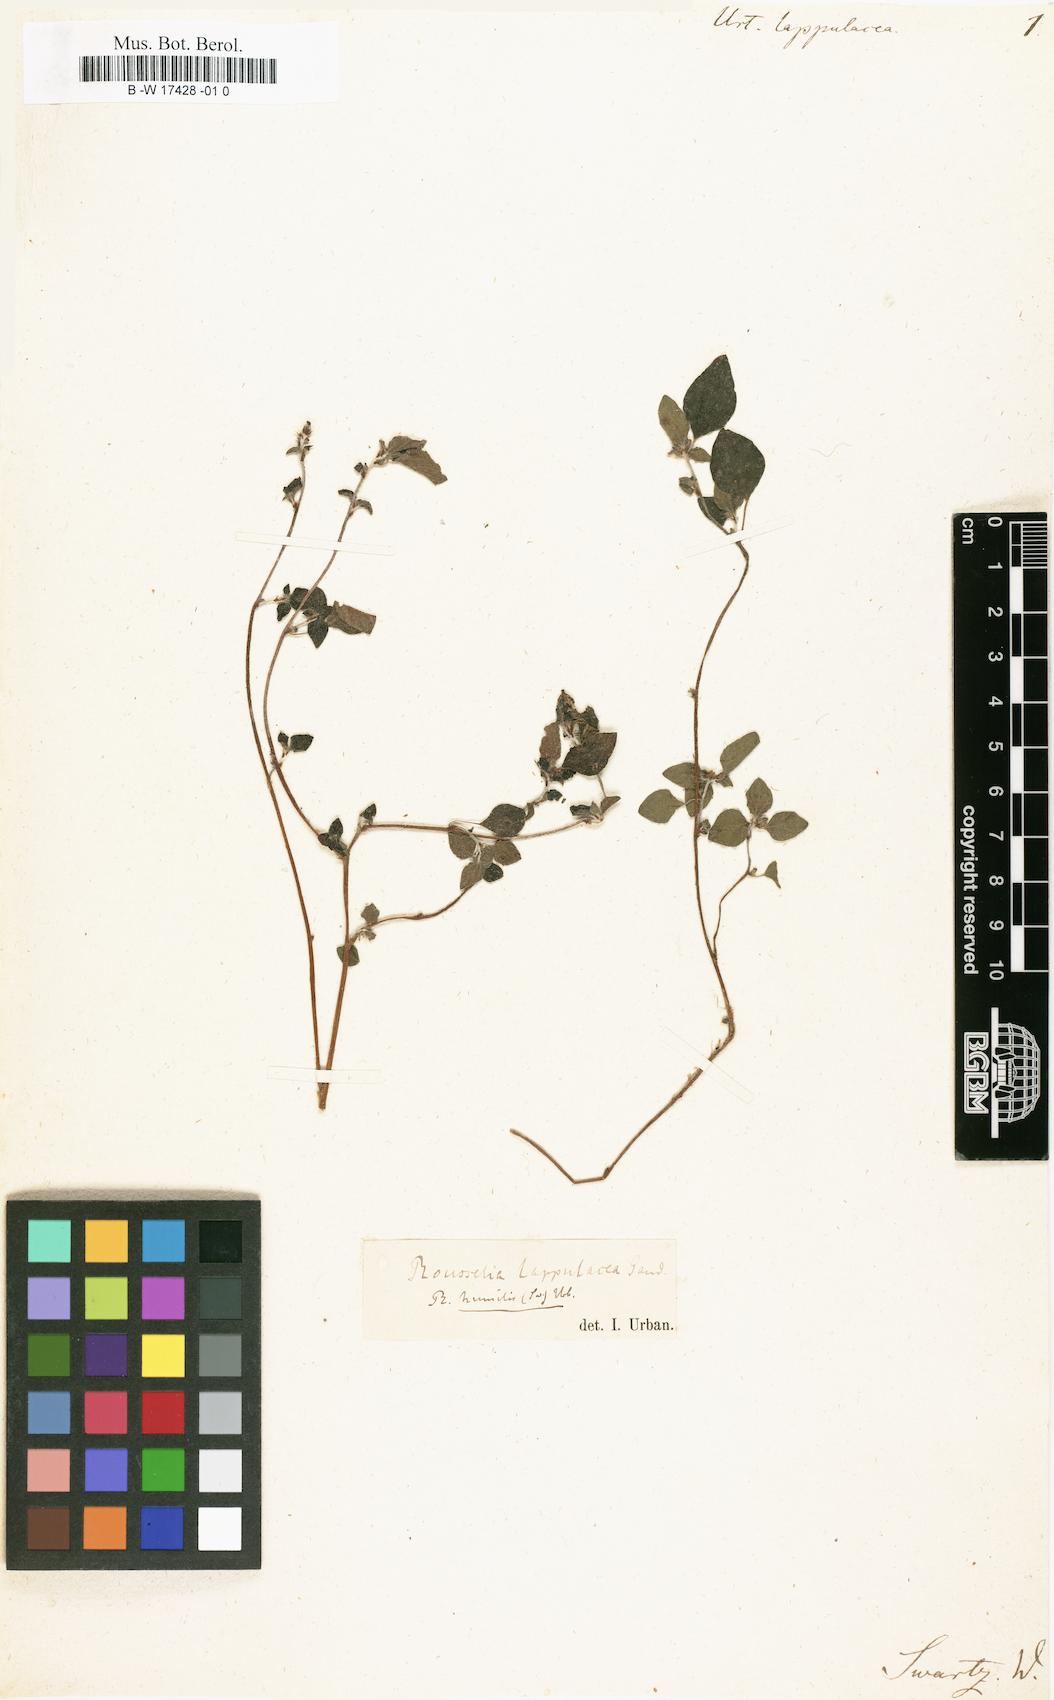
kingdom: Plantae
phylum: Tracheophyta
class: Magnoliopsida
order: Rosales
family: Urticaceae
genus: Rousselia
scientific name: Rousselia humilis
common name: Shineseed
